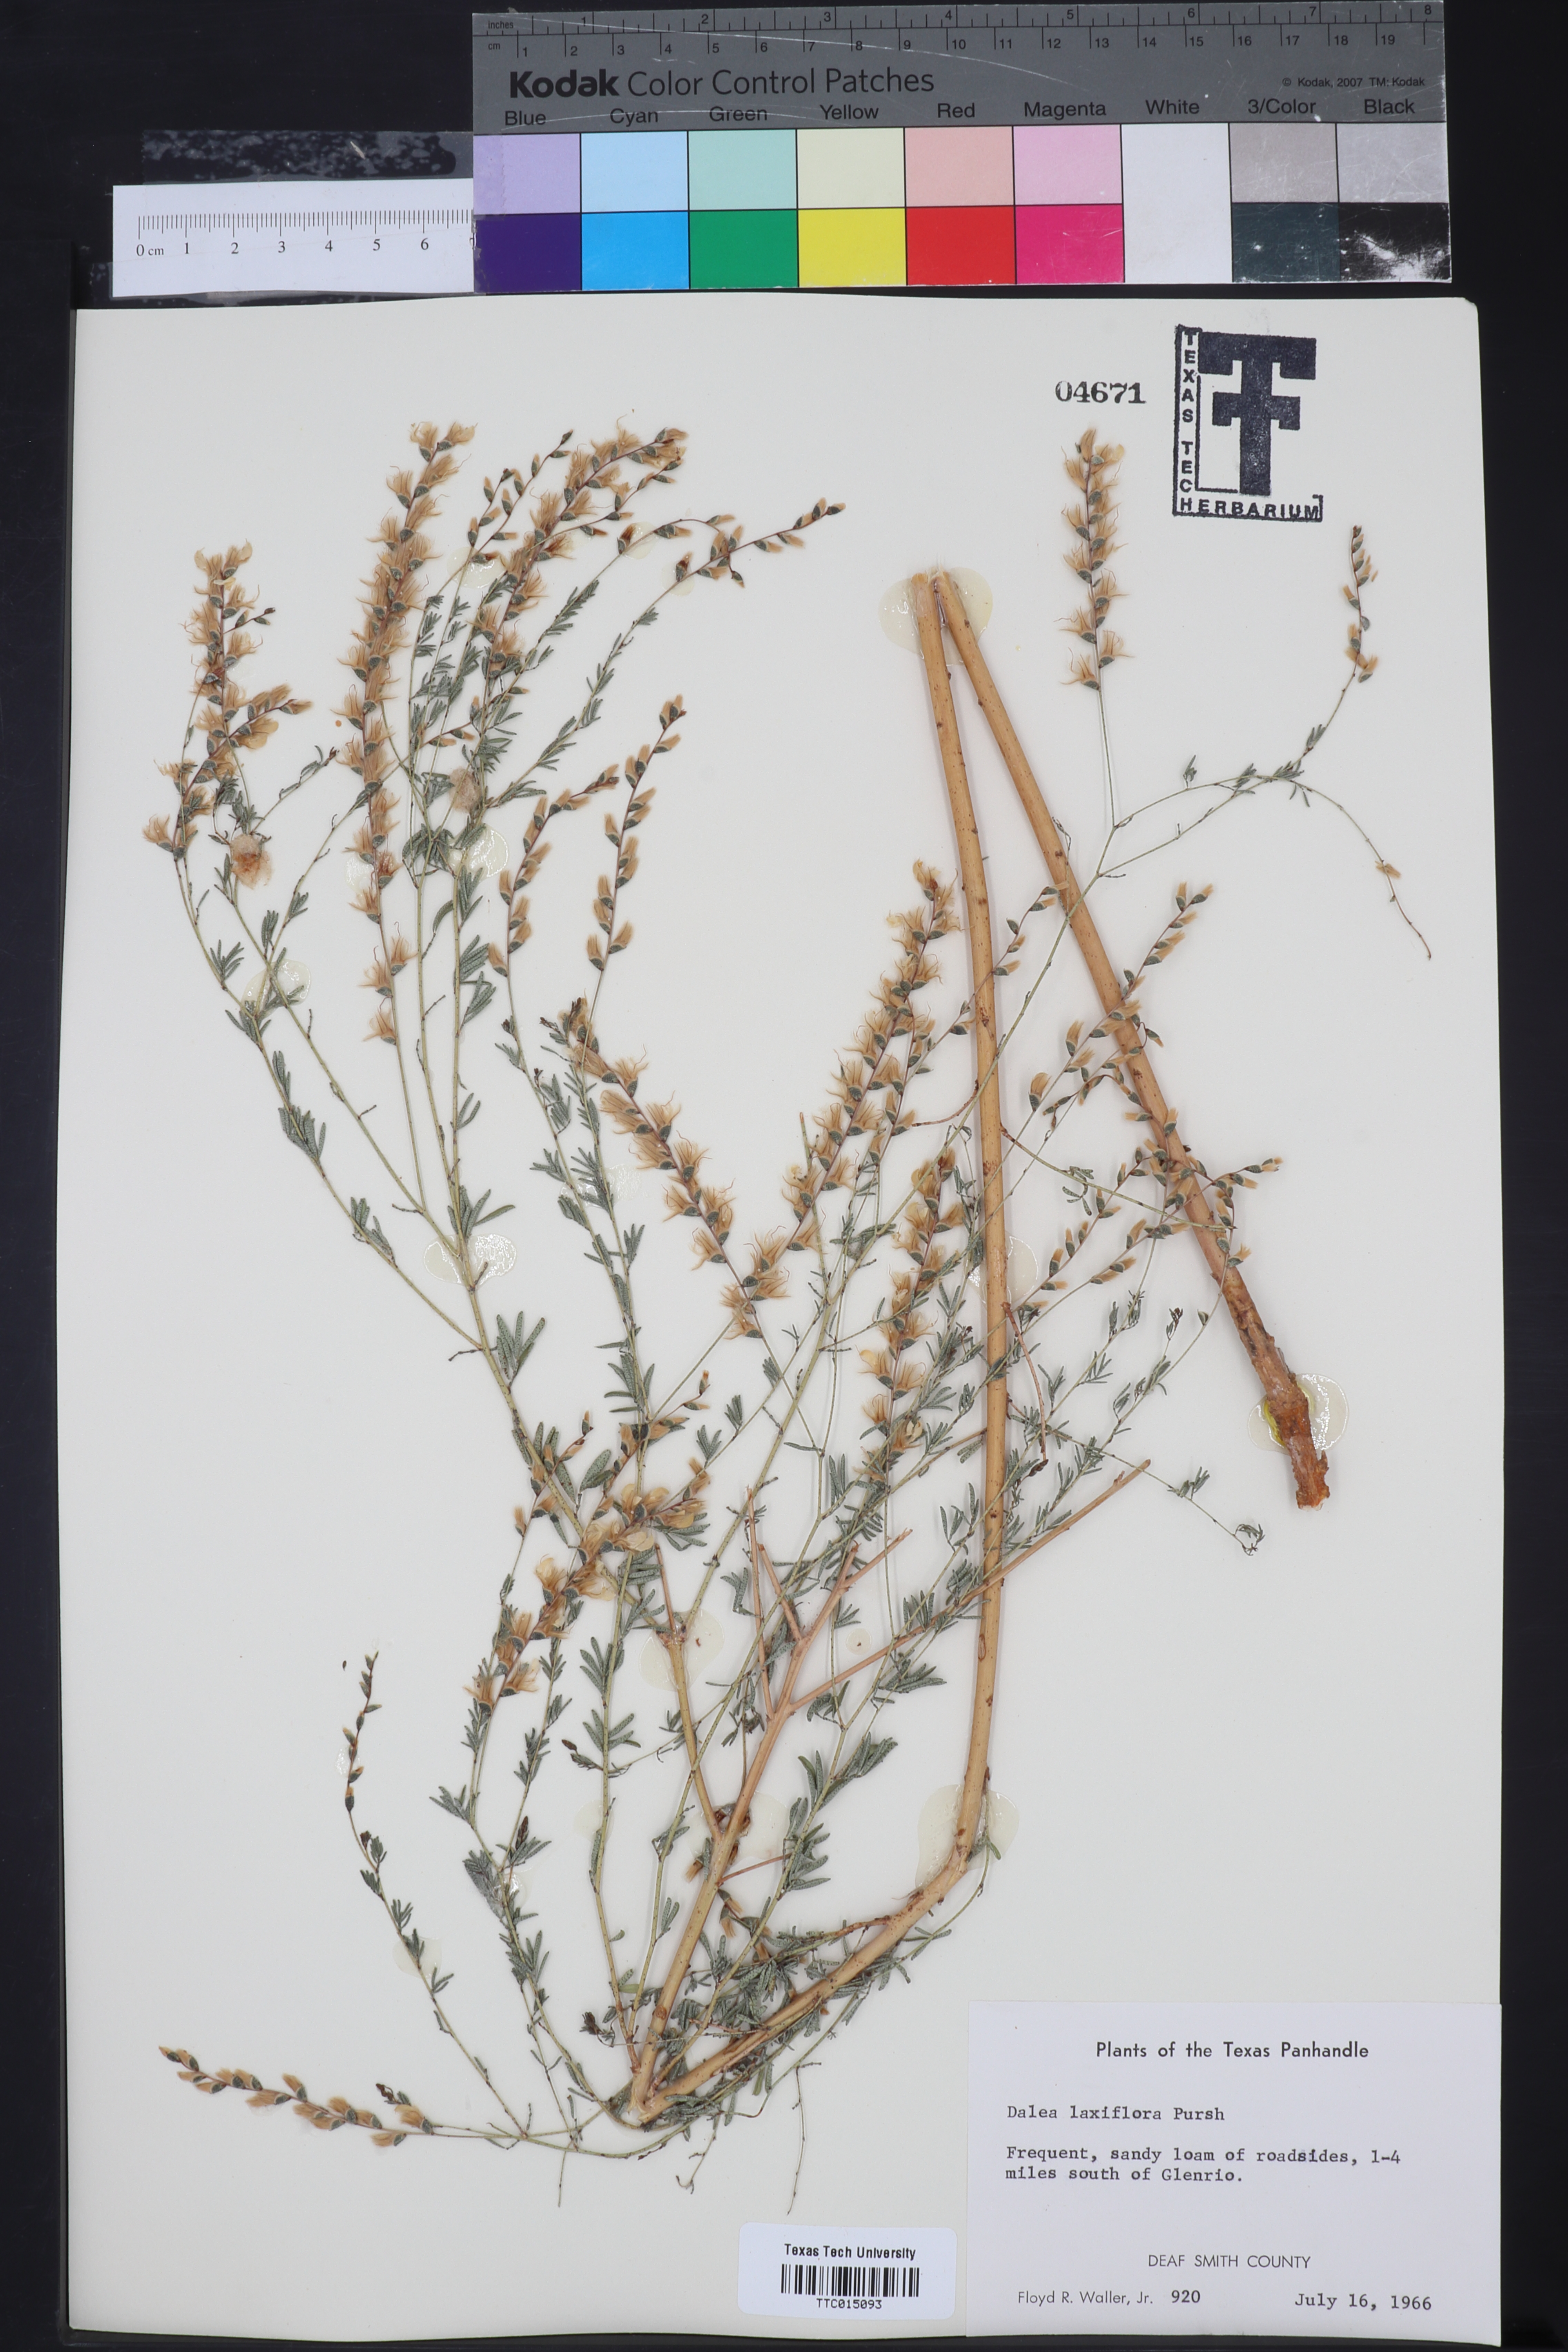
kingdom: Plantae
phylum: Tracheophyta
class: Magnoliopsida
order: Fabales
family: Fabaceae
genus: Dalea
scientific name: Dalea hegewischiana
